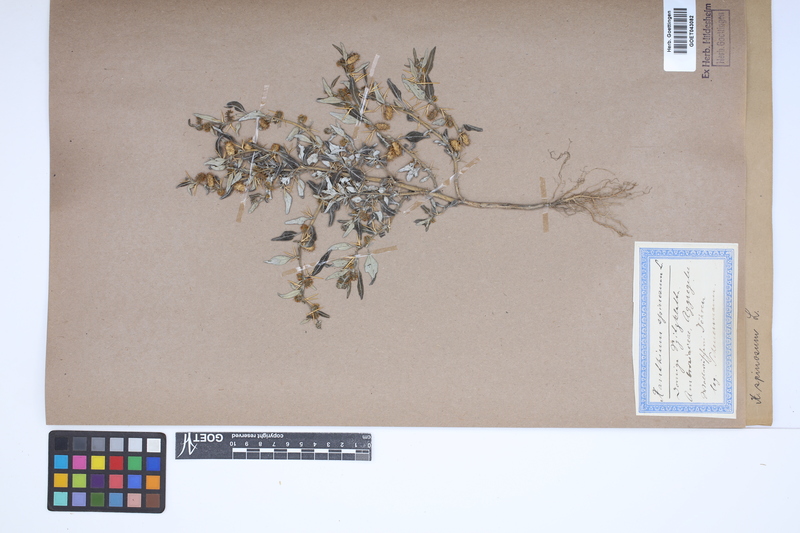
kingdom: Plantae
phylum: Tracheophyta
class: Magnoliopsida
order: Asterales
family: Asteraceae
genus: Xanthium
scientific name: Xanthium spinosum
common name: Spiny cocklebur
